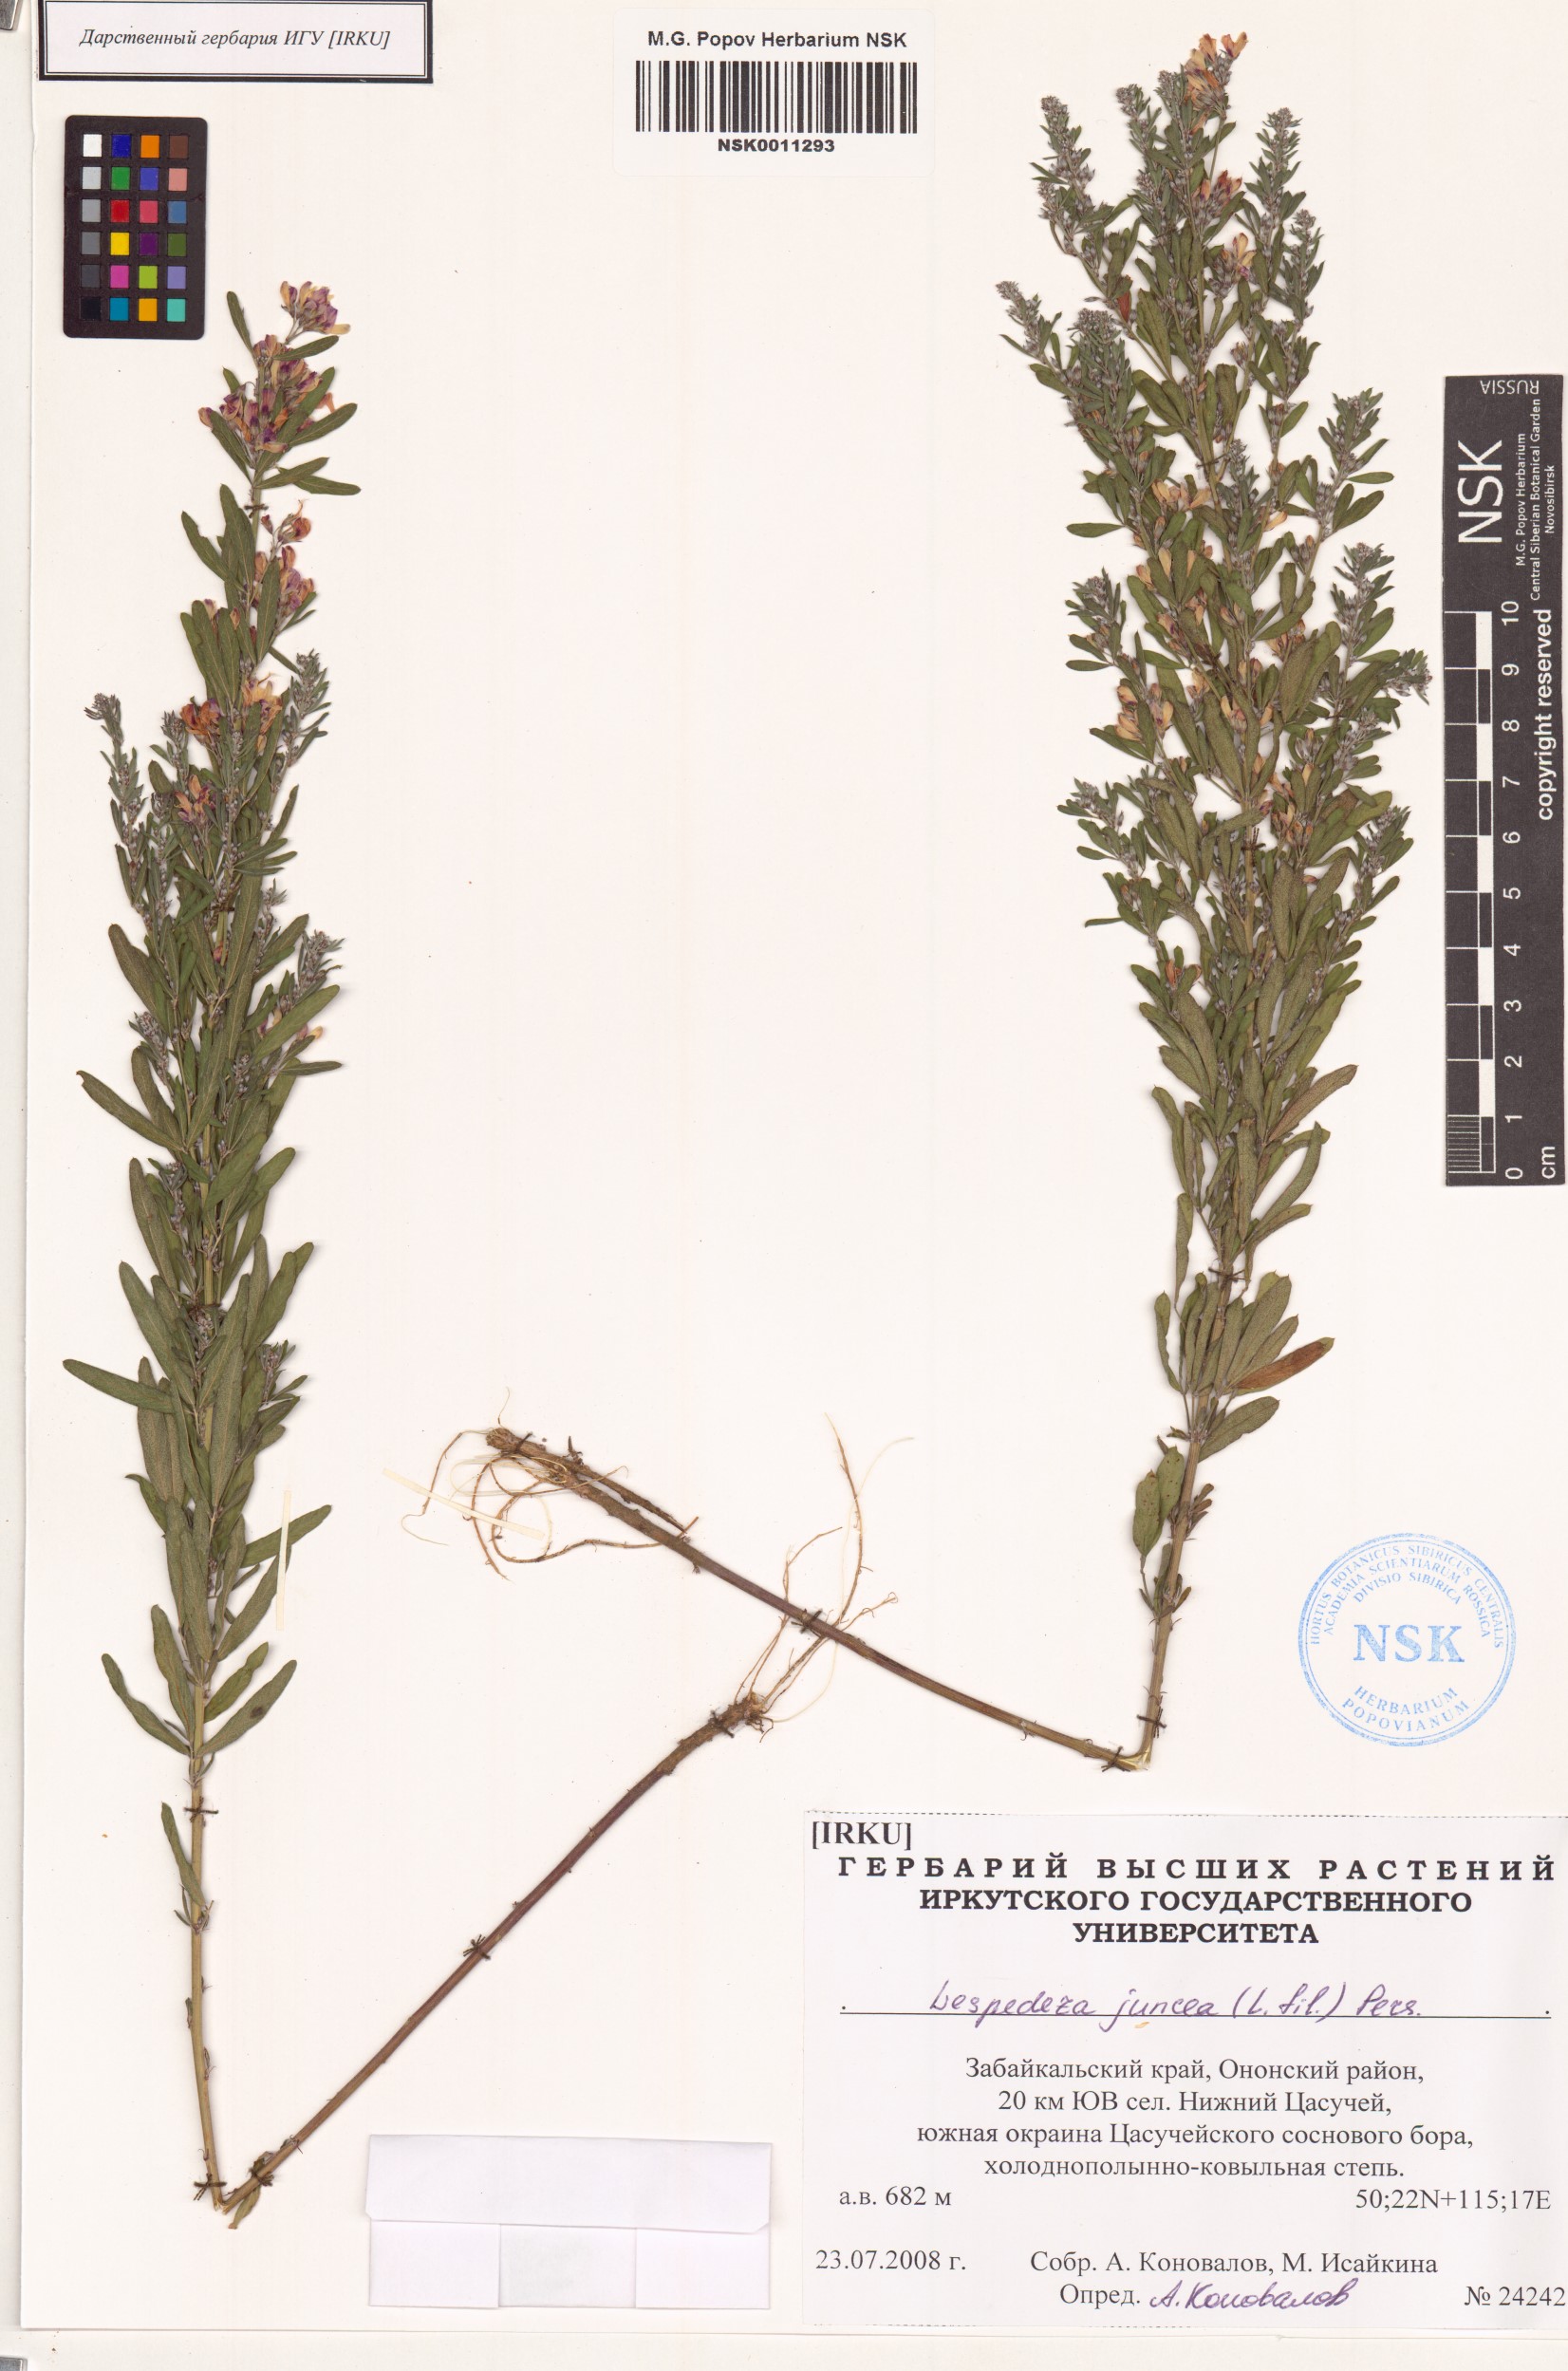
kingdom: Plantae
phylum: Tracheophyta
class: Magnoliopsida
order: Fabales
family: Fabaceae
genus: Lespedeza
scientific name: Lespedeza juncea
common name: Siberian lespedeza
